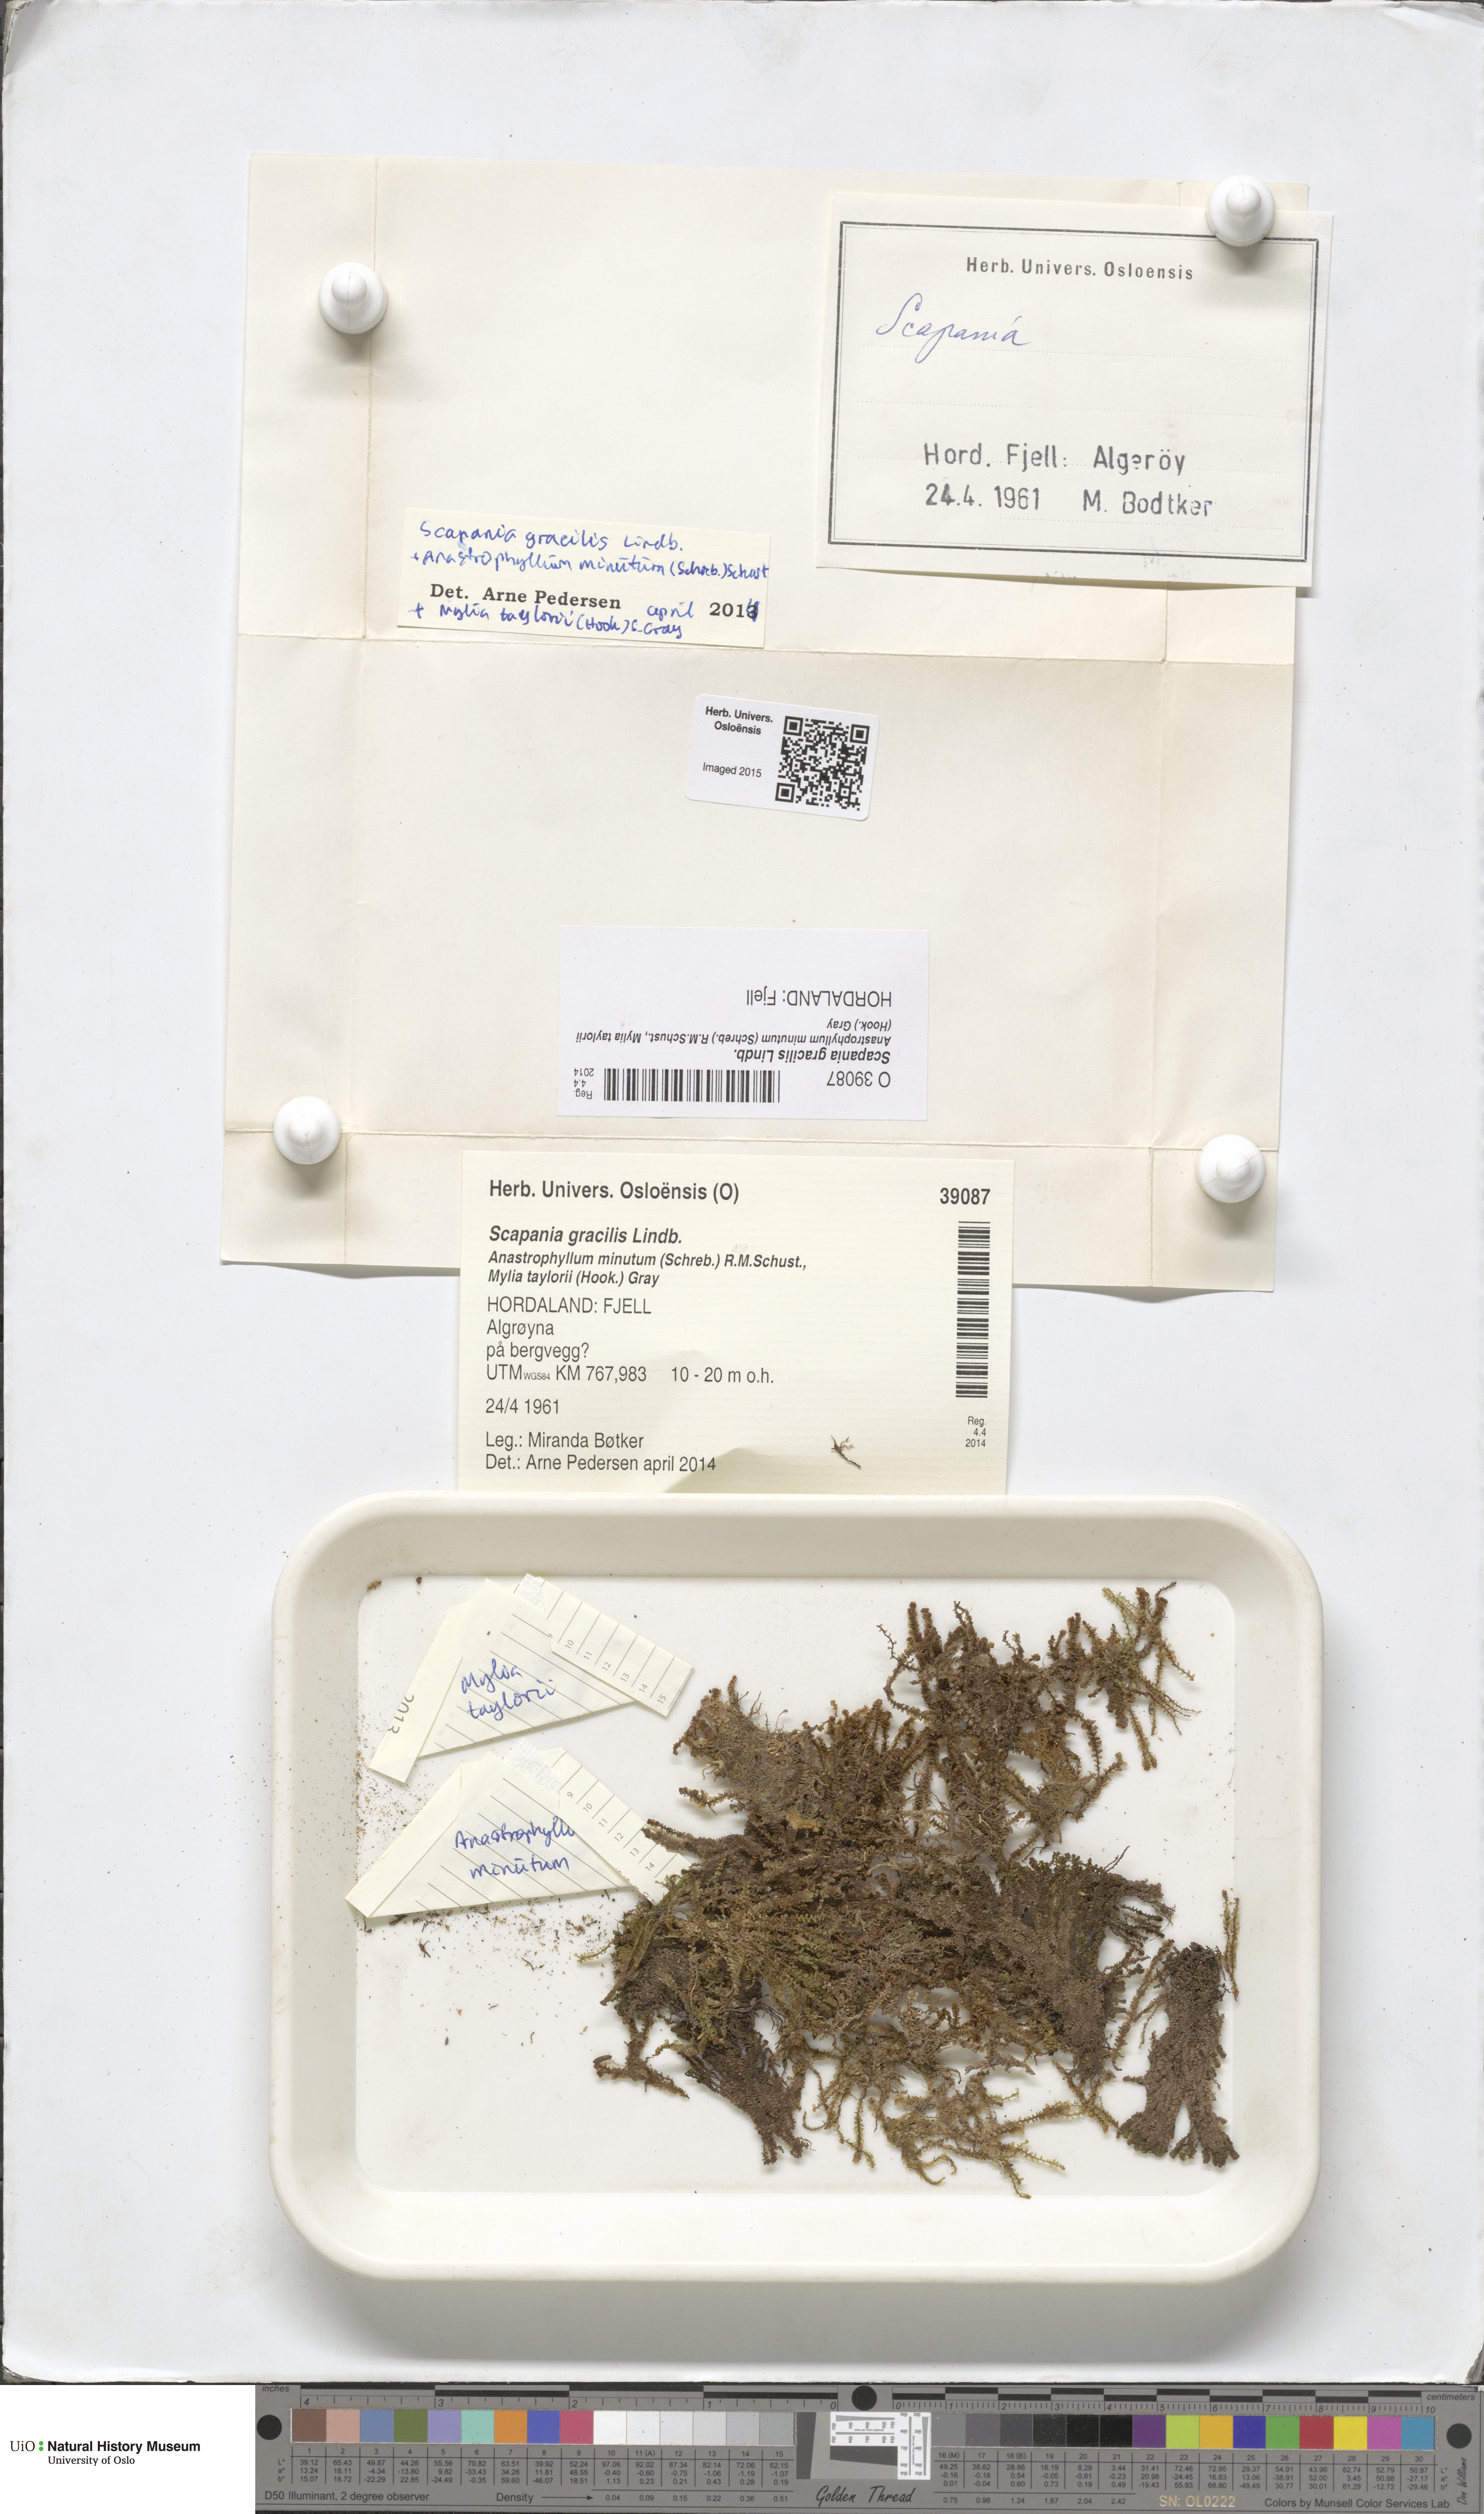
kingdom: Plantae
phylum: Marchantiophyta
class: Jungermanniopsida
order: Jungermanniales
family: Scapaniaceae
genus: Scapania
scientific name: Scapania gracilis
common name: Western earwort
